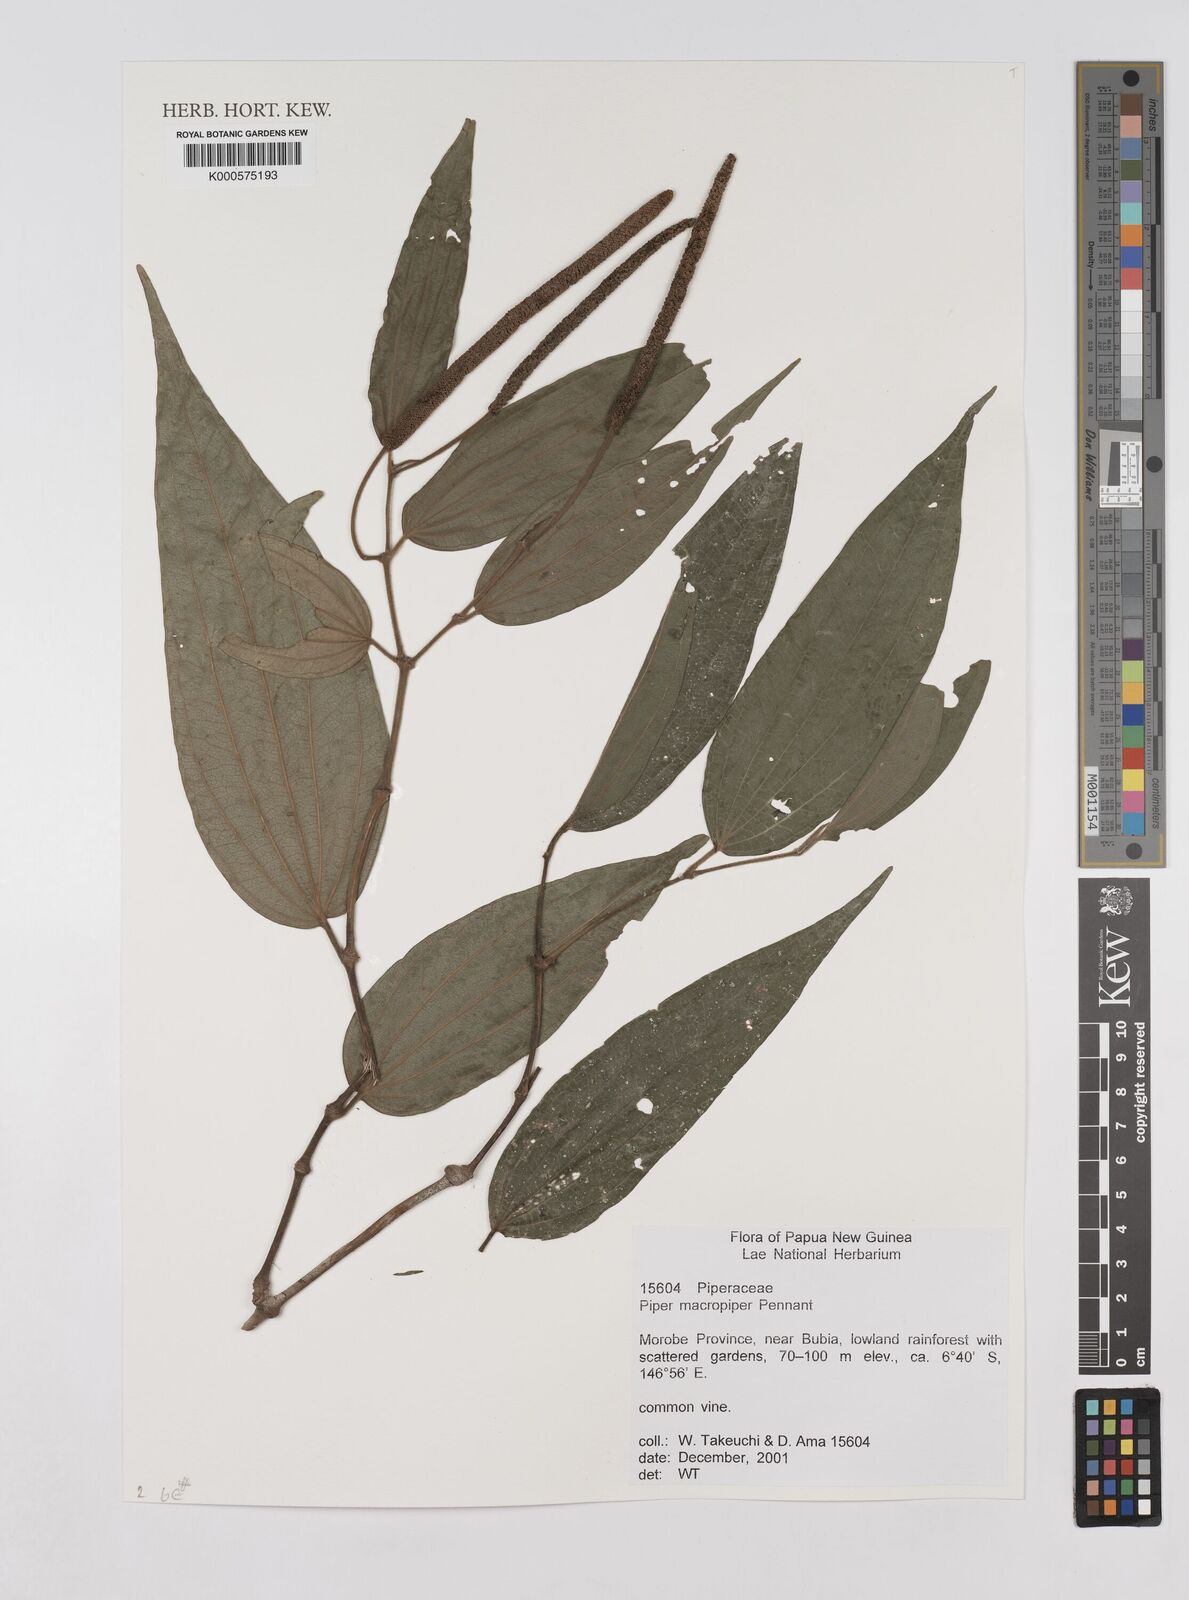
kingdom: Plantae
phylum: Tracheophyta
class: Magnoliopsida
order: Piperales
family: Piperaceae
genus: Piper
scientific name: Piper macropiper
